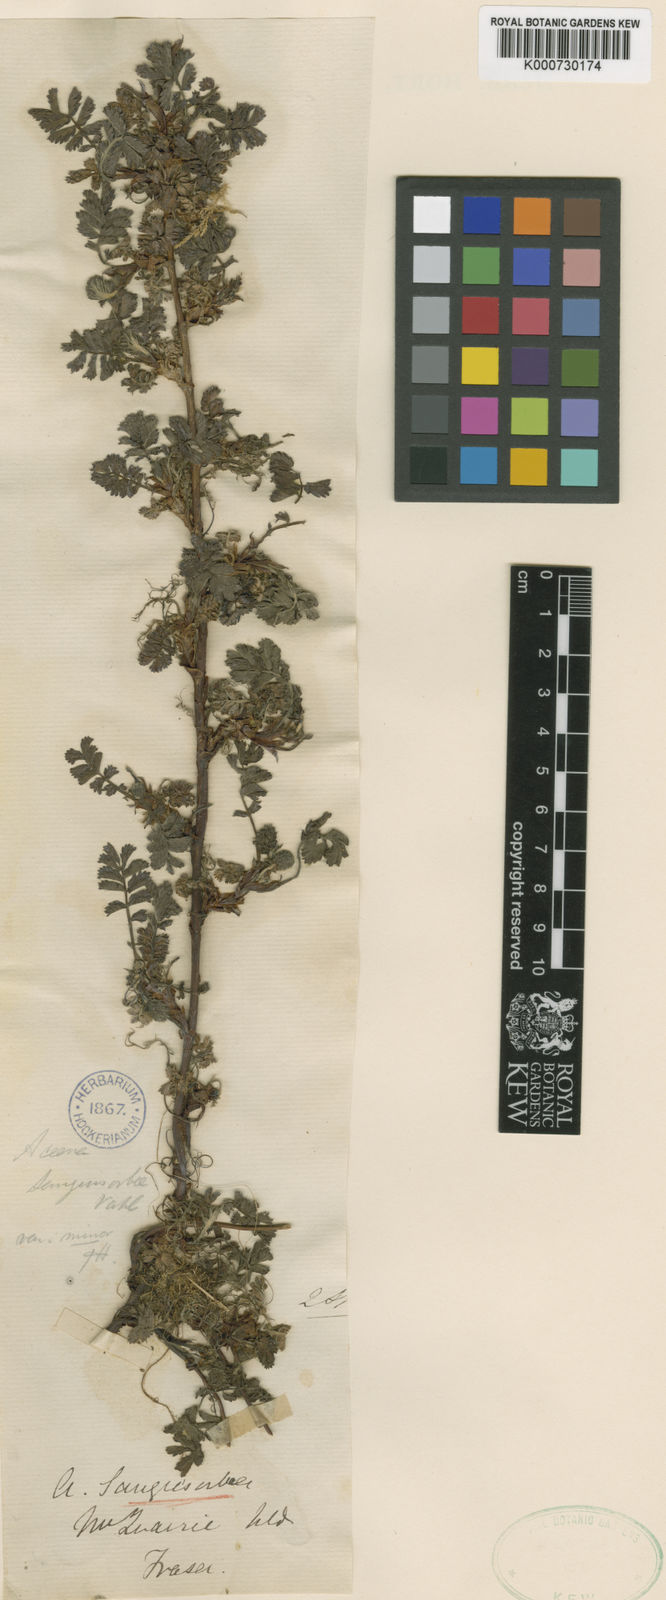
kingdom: Plantae
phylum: Tracheophyta
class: Magnoliopsida
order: Rosales
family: Rosaceae
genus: Acaena
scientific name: Acaena minor
